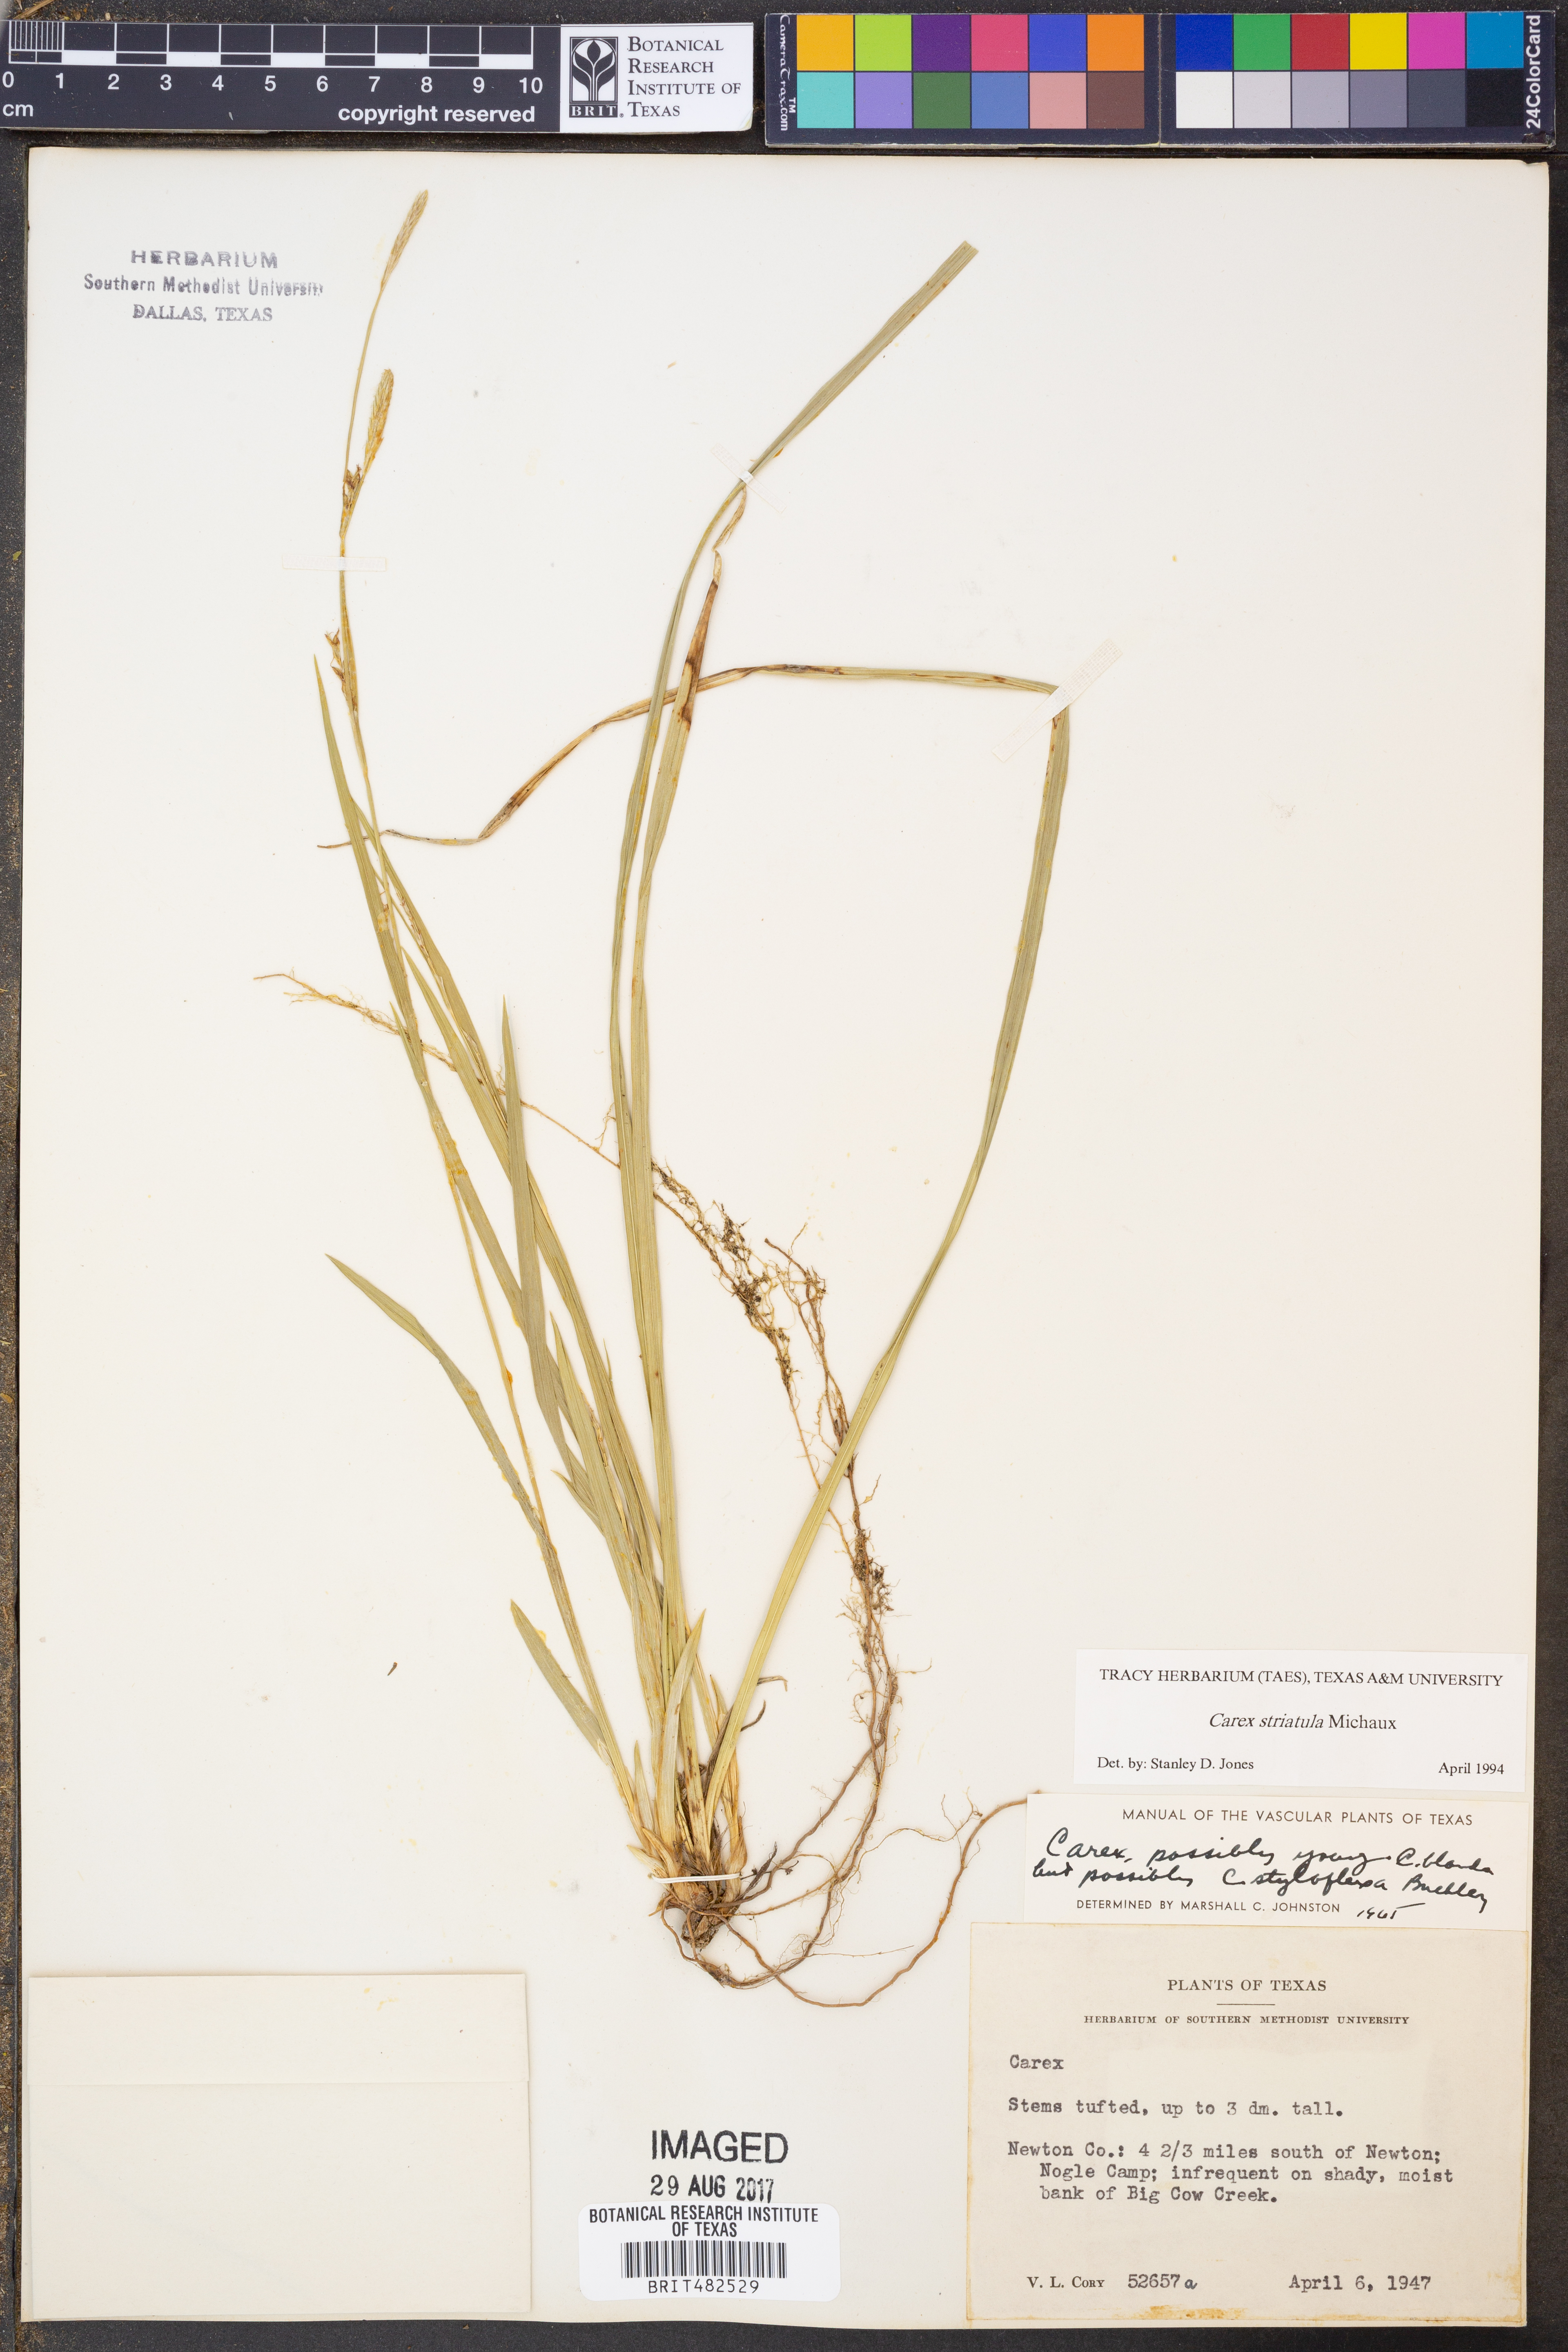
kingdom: Plantae
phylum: Tracheophyta
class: Liliopsida
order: Poales
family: Cyperaceae
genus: Carex
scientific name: Carex striatula
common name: Lined sedge
